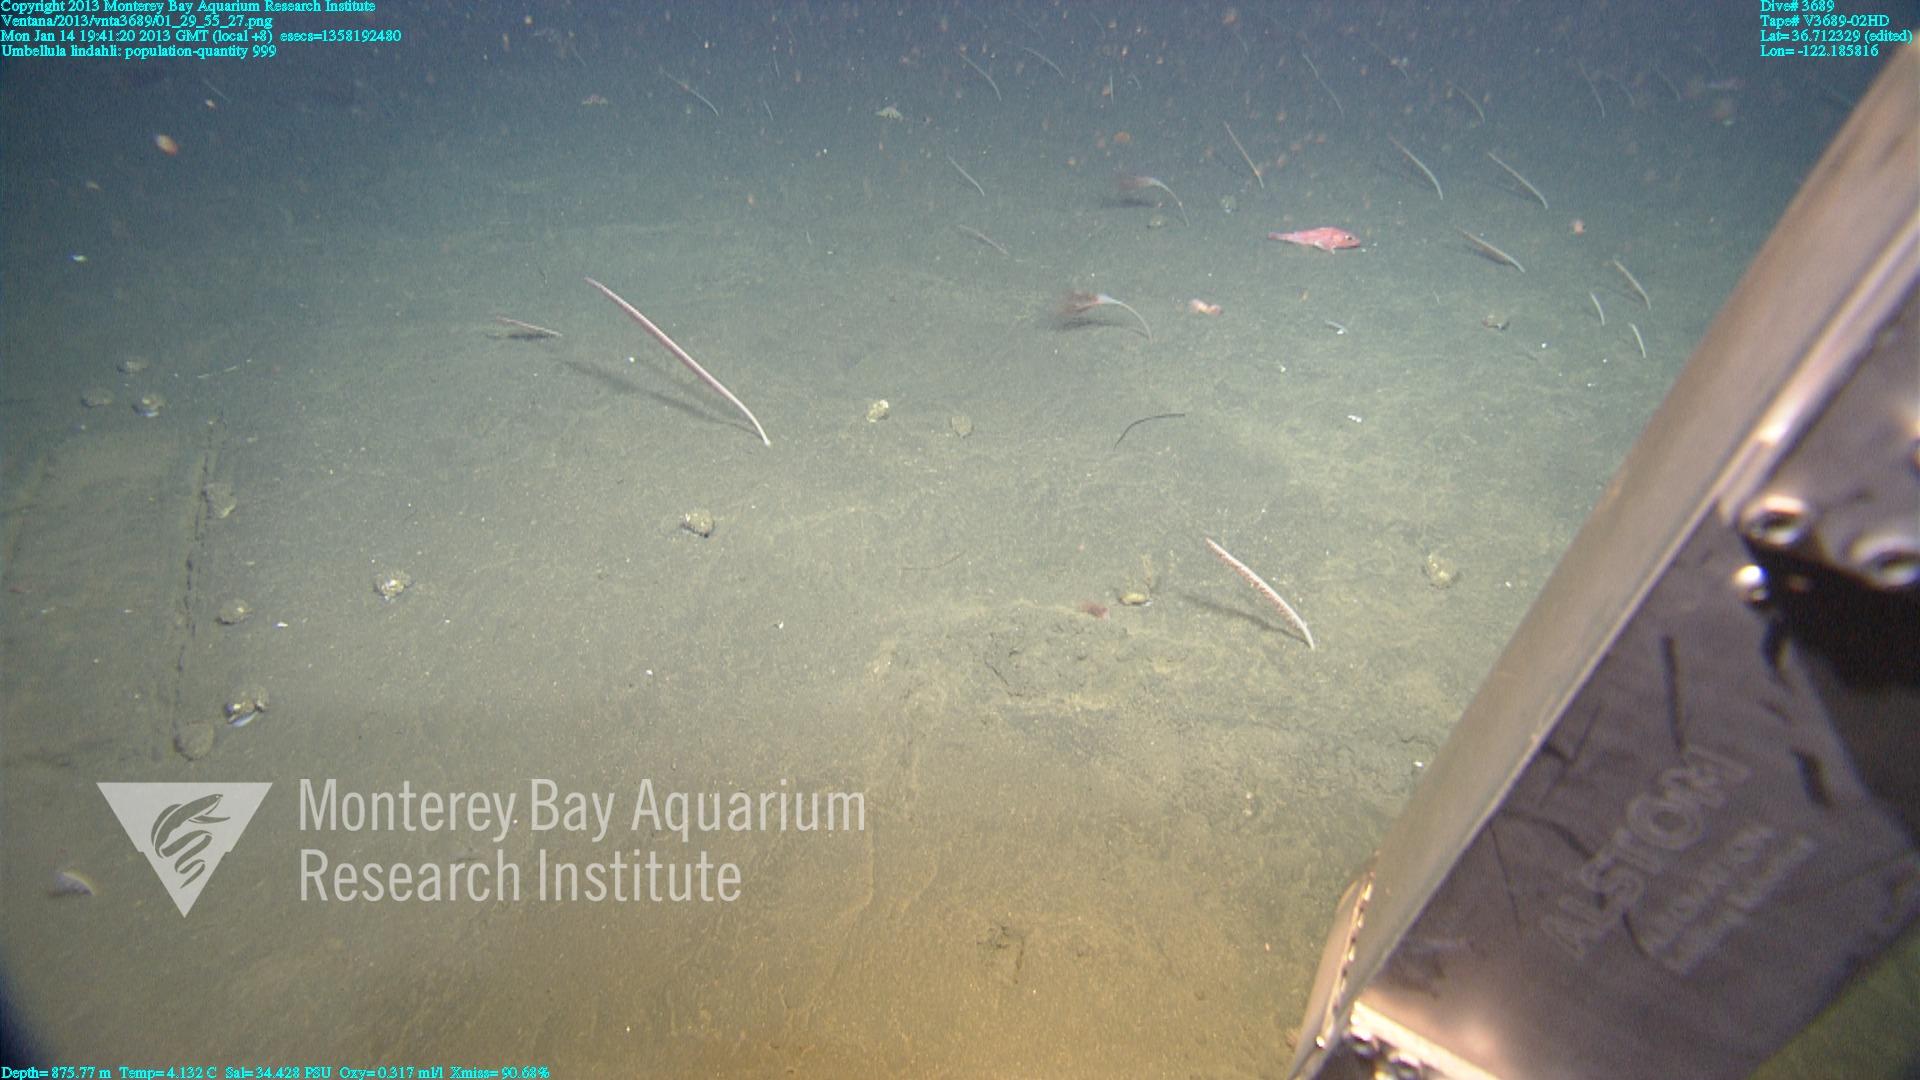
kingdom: Animalia
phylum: Cnidaria
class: Anthozoa
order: Scleralcyonacea
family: Umbellulidae
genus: Umbellula
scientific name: Umbellula lindahli
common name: Lindahl's droopy sea pen
